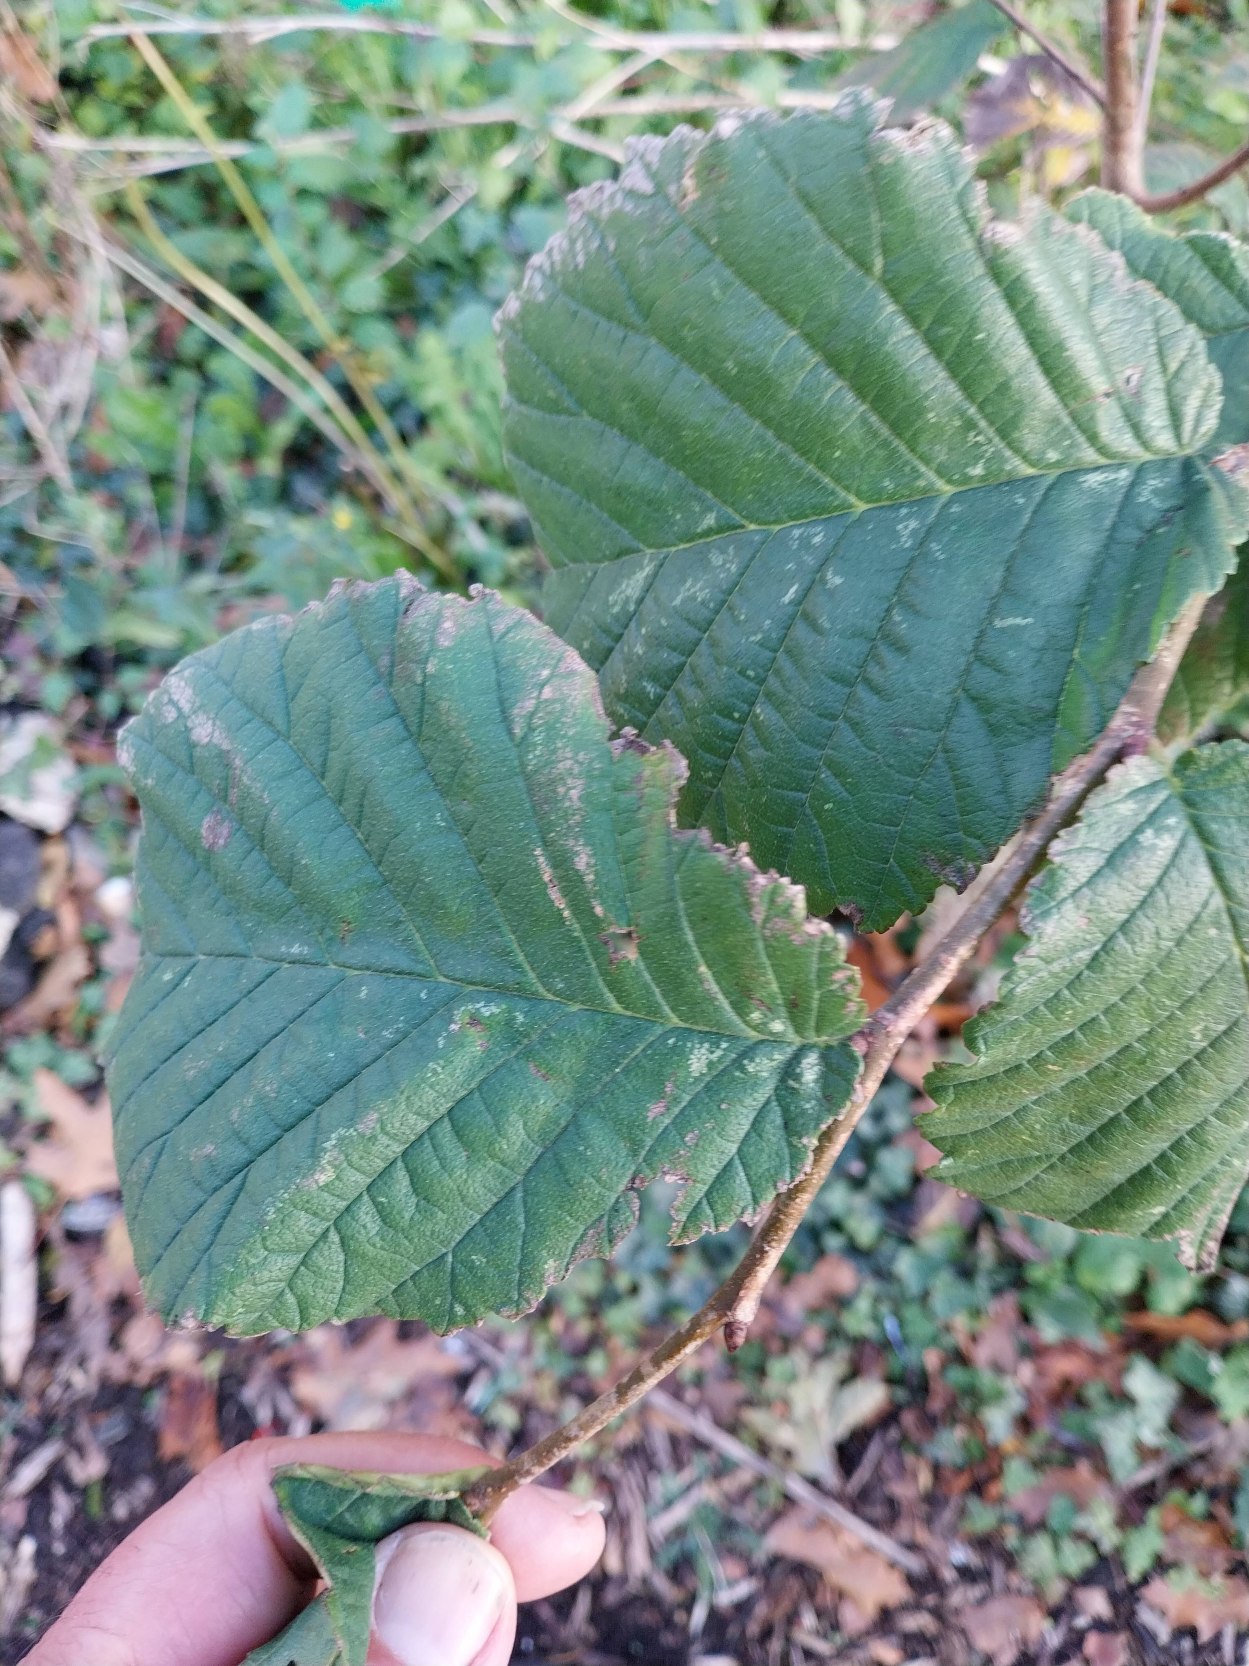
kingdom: Plantae
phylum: Tracheophyta
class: Magnoliopsida
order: Rosales
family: Ulmaceae
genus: Ulmus
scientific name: Ulmus glabra
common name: Skov-elm/storbladet elm
